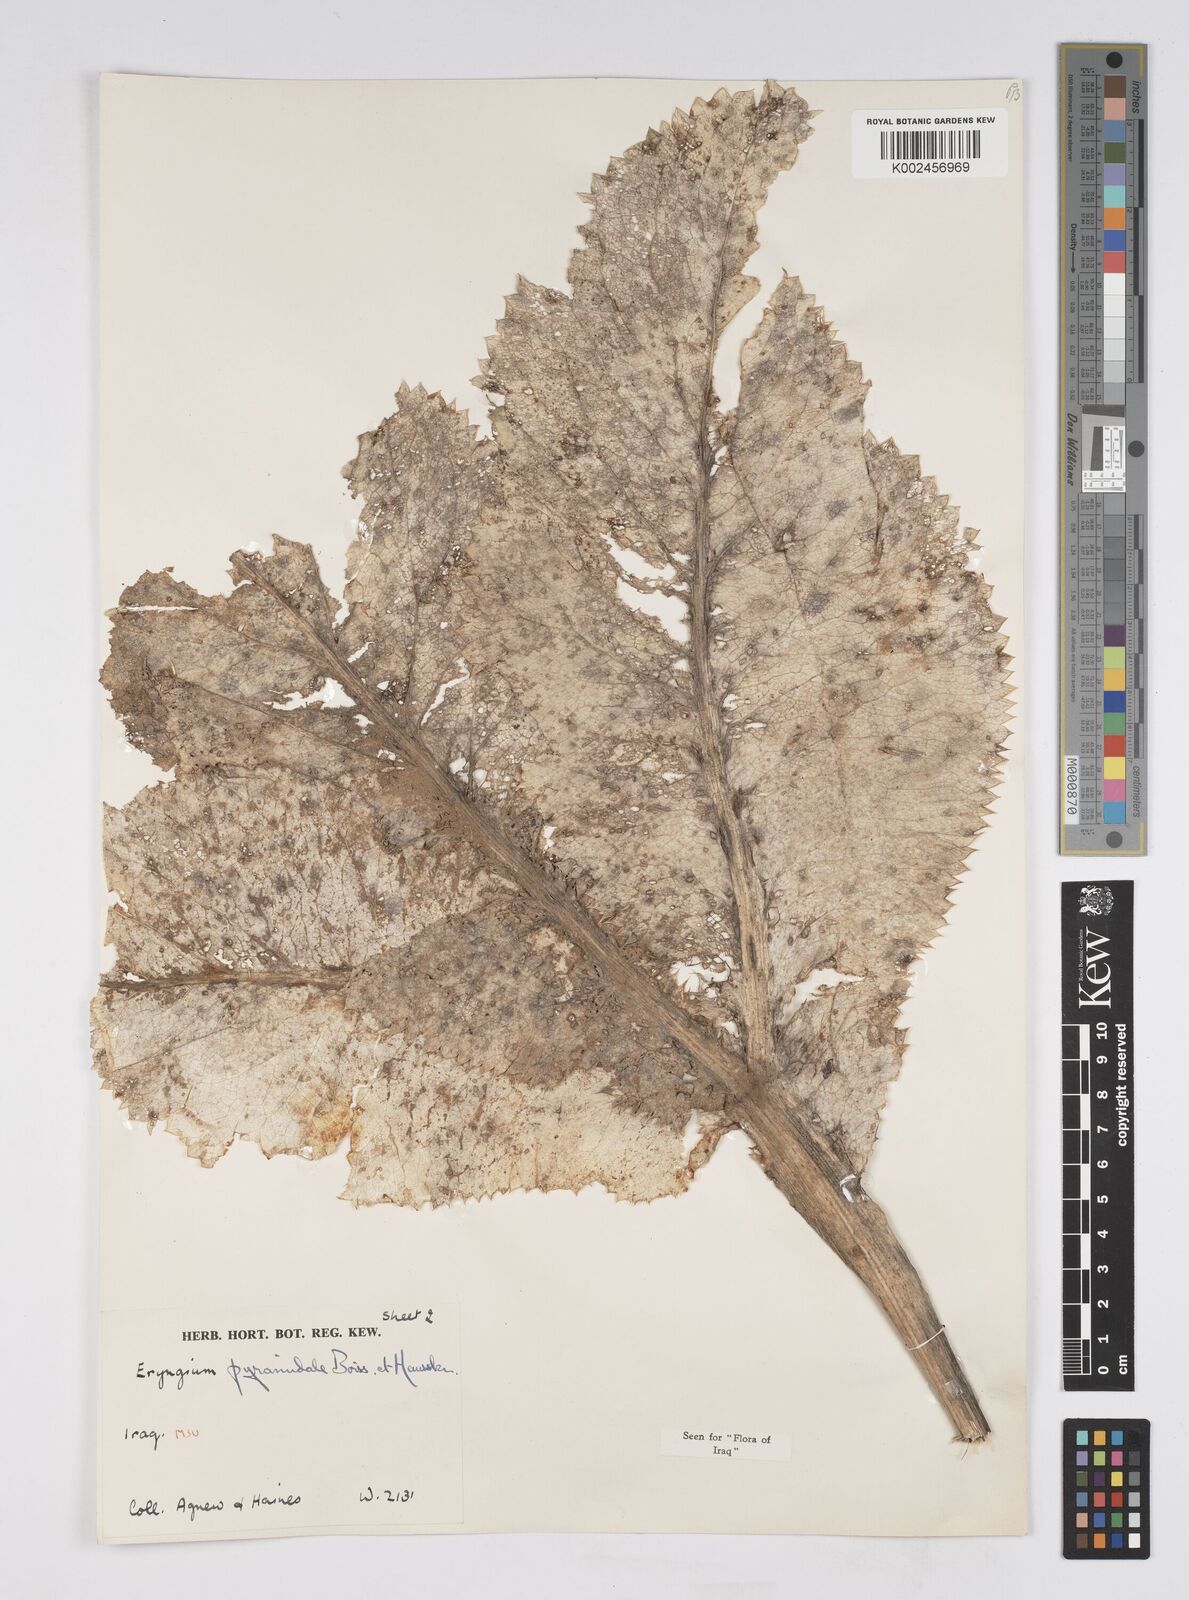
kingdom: Plantae
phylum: Tracheophyta
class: Magnoliopsida
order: Apiales
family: Apiaceae
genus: Eryngium
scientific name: Eryngium pyramidale
